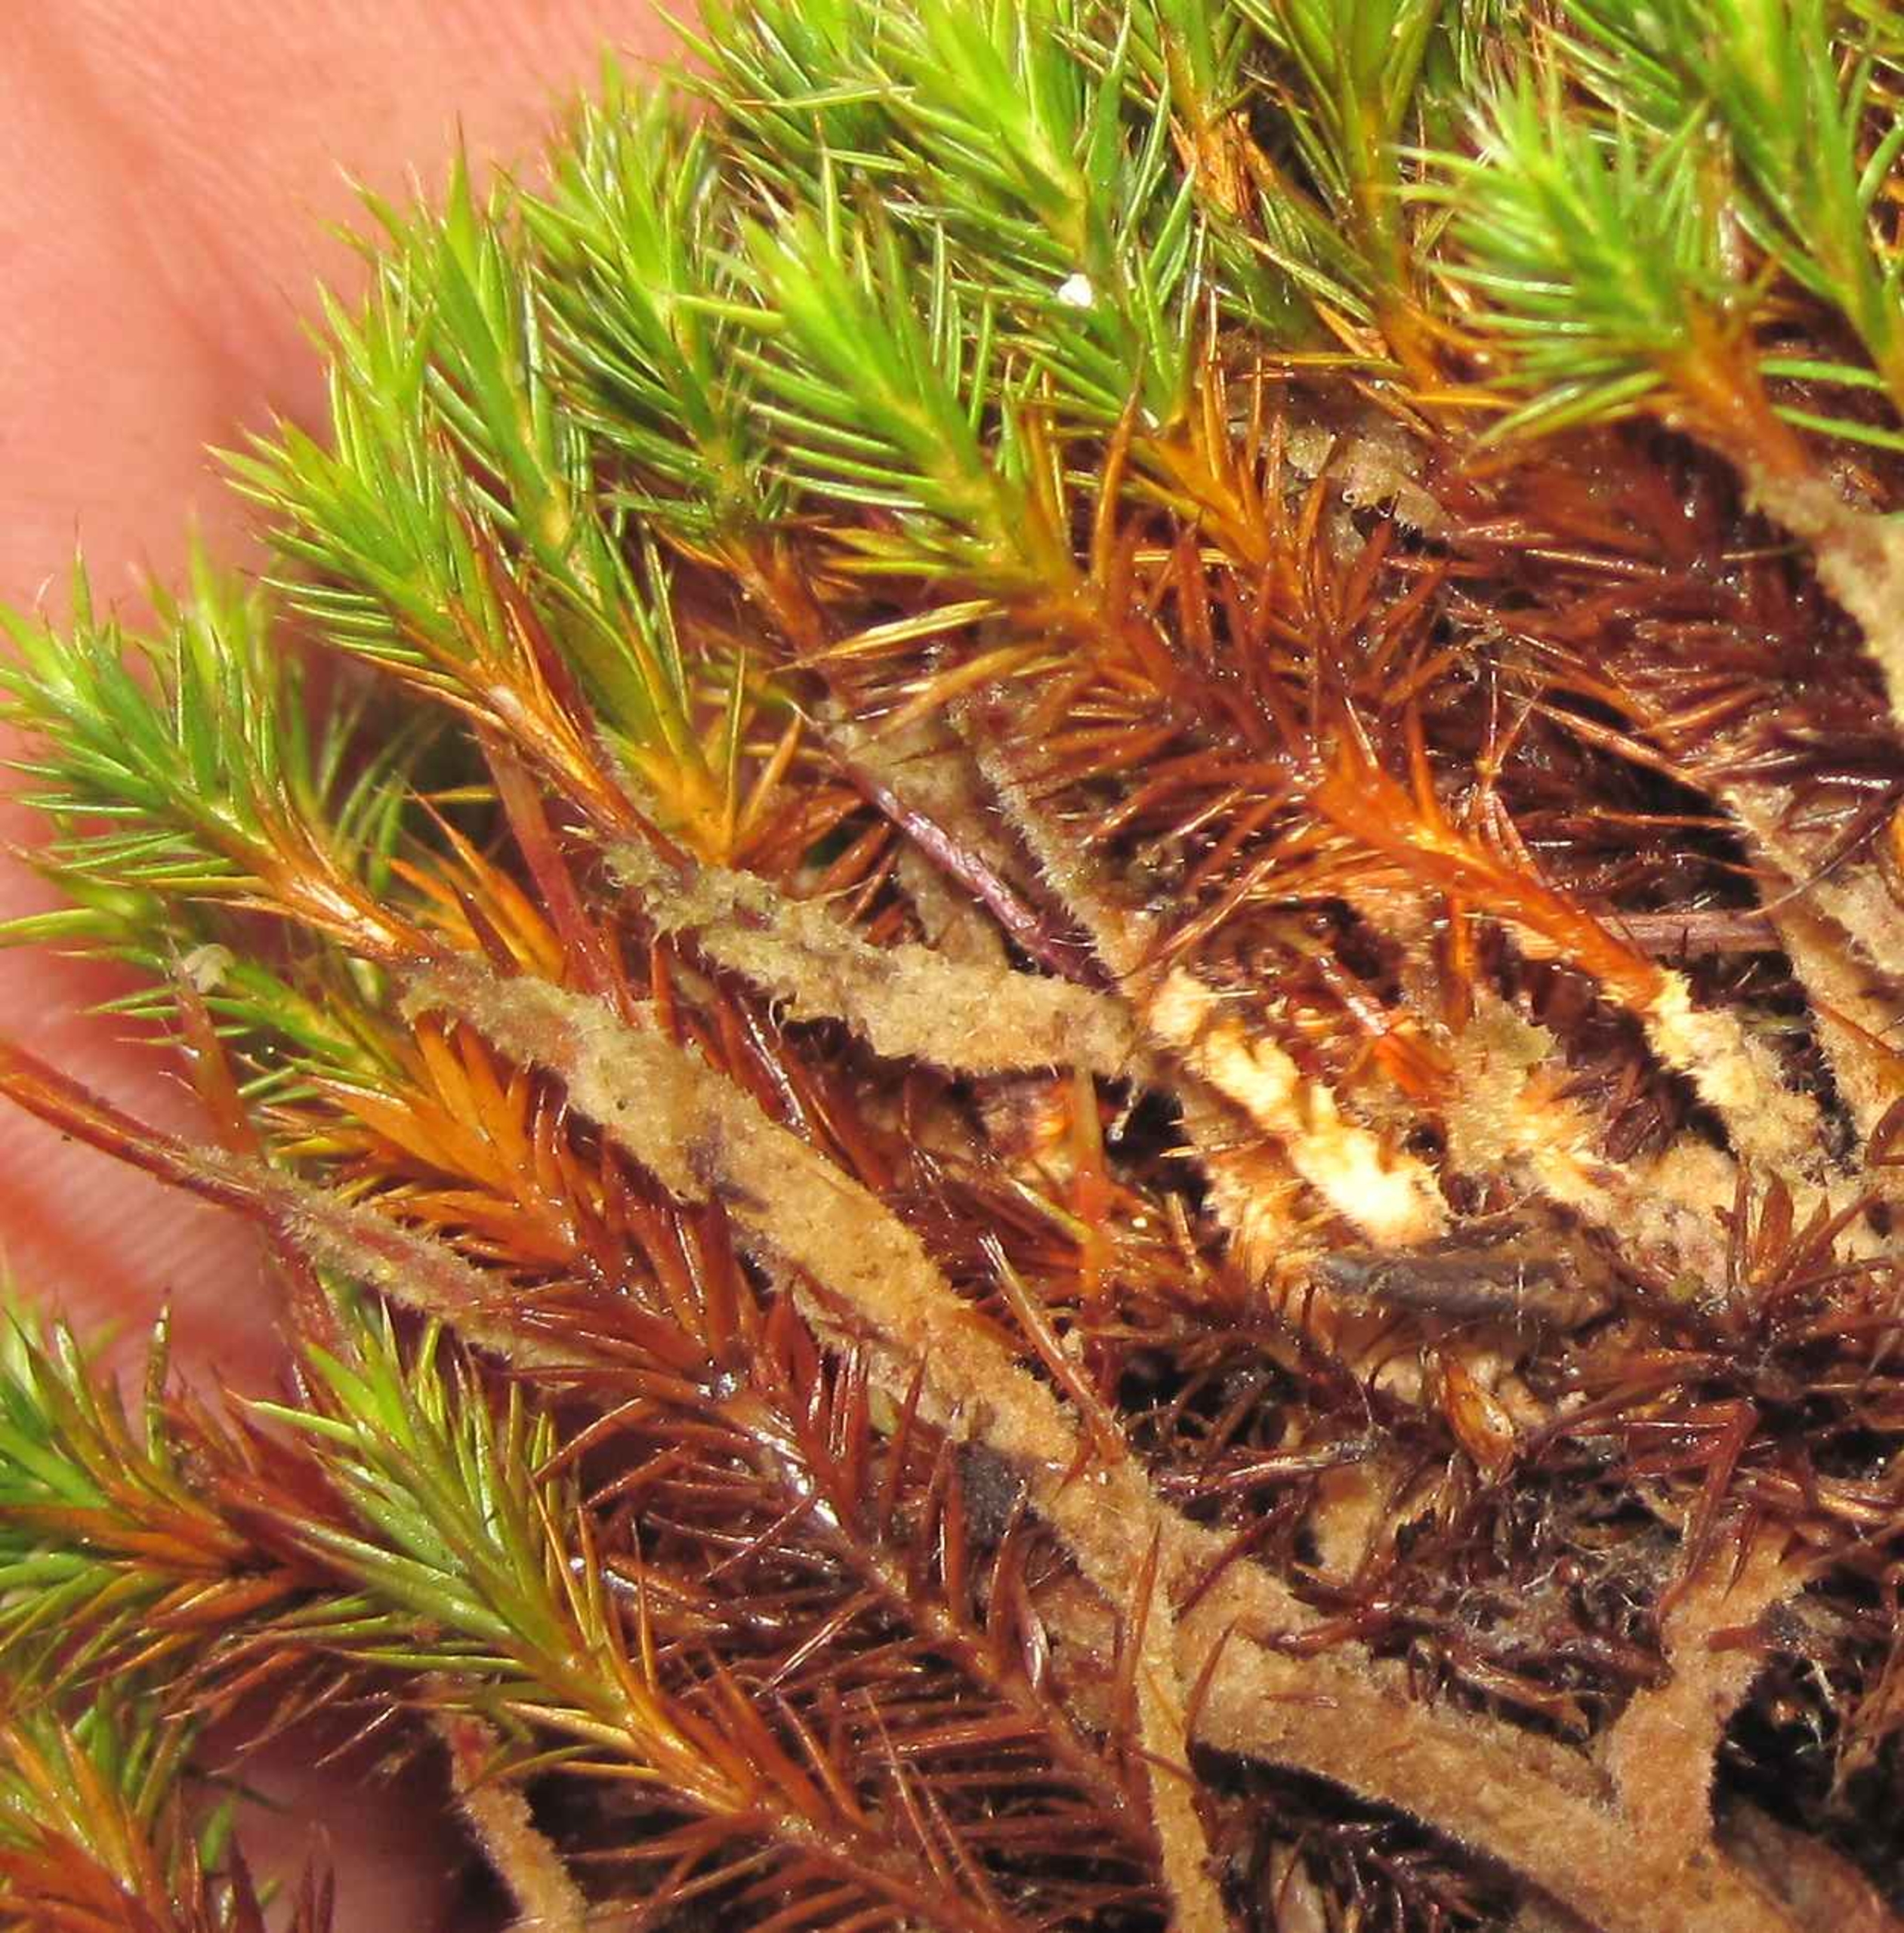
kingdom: Plantae
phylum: Bryophyta
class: Polytrichopsida
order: Polytrichales
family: Polytrichaceae
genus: Polytrichum
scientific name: Polytrichum strictum
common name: Filtstænglet jomfruhår
